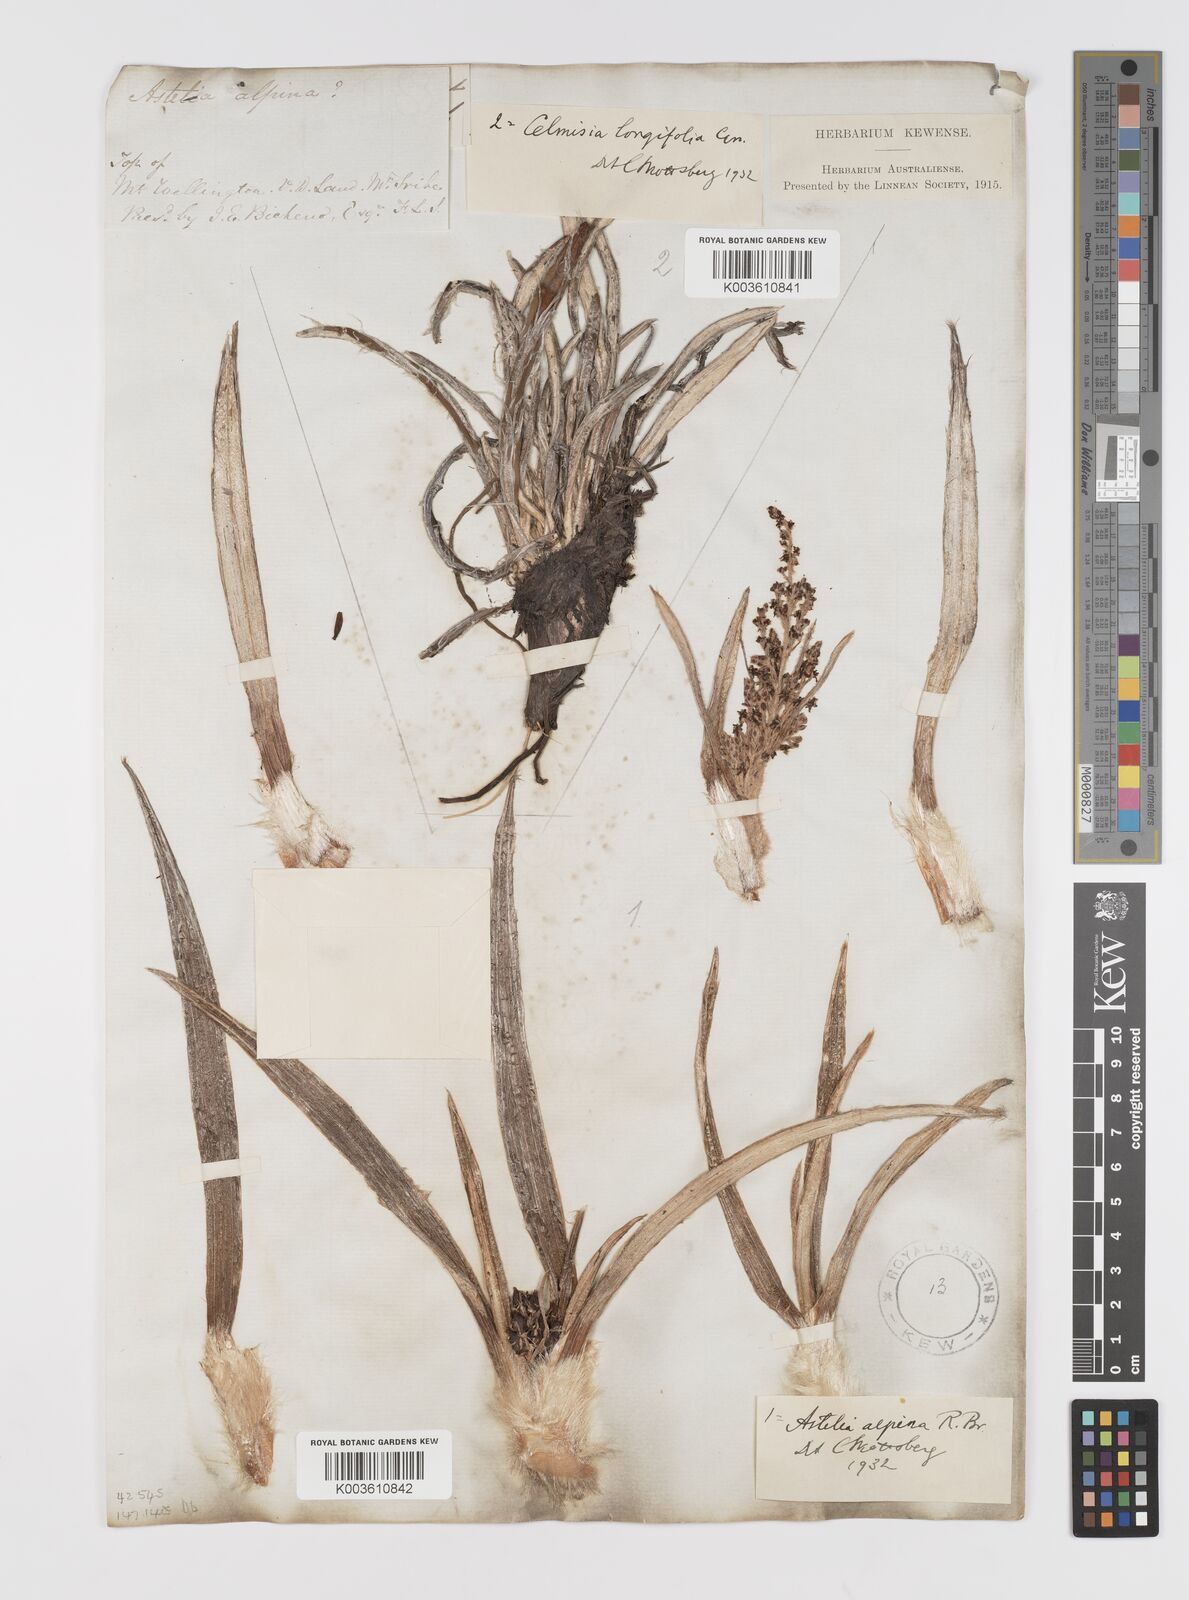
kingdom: Plantae
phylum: Tracheophyta
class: Liliopsida
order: Asparagales
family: Asteliaceae
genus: Astelia
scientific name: Astelia alpina
